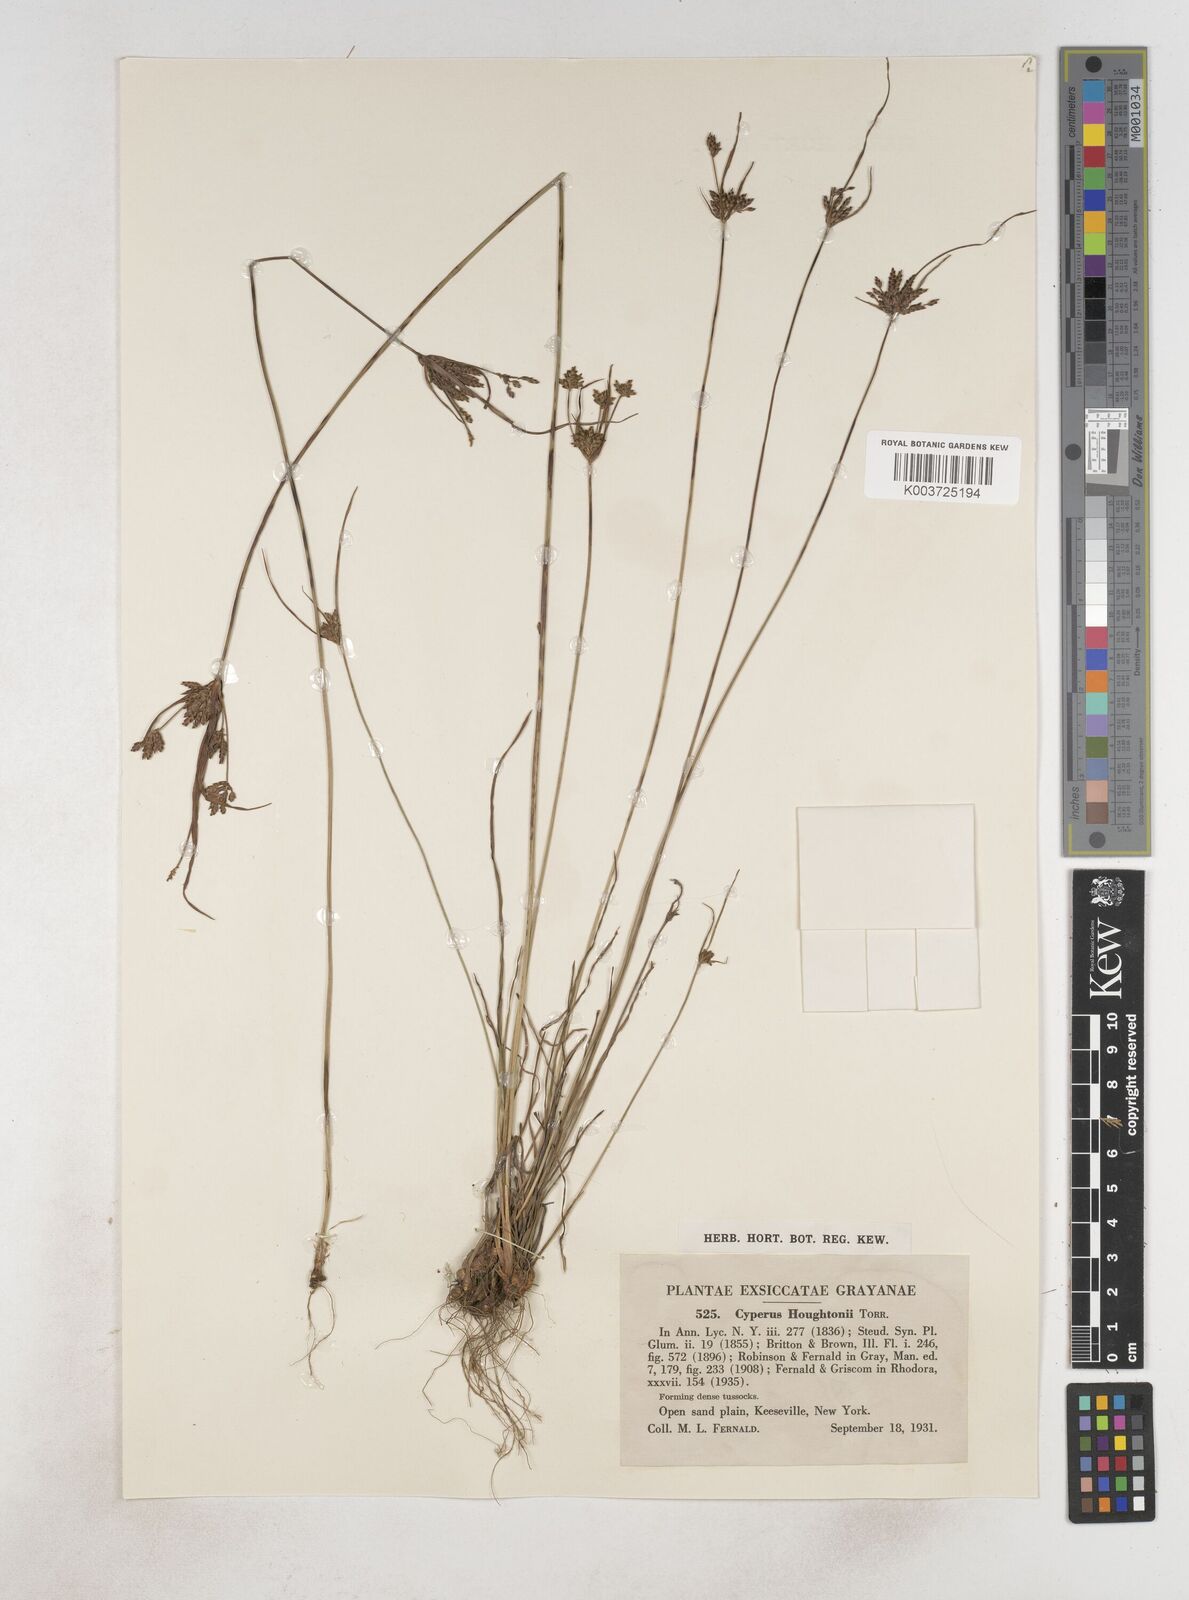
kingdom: Plantae
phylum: Tracheophyta
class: Liliopsida
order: Poales
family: Cyperaceae
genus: Cyperus
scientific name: Cyperus lupulinus
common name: Great plains flatsedge
